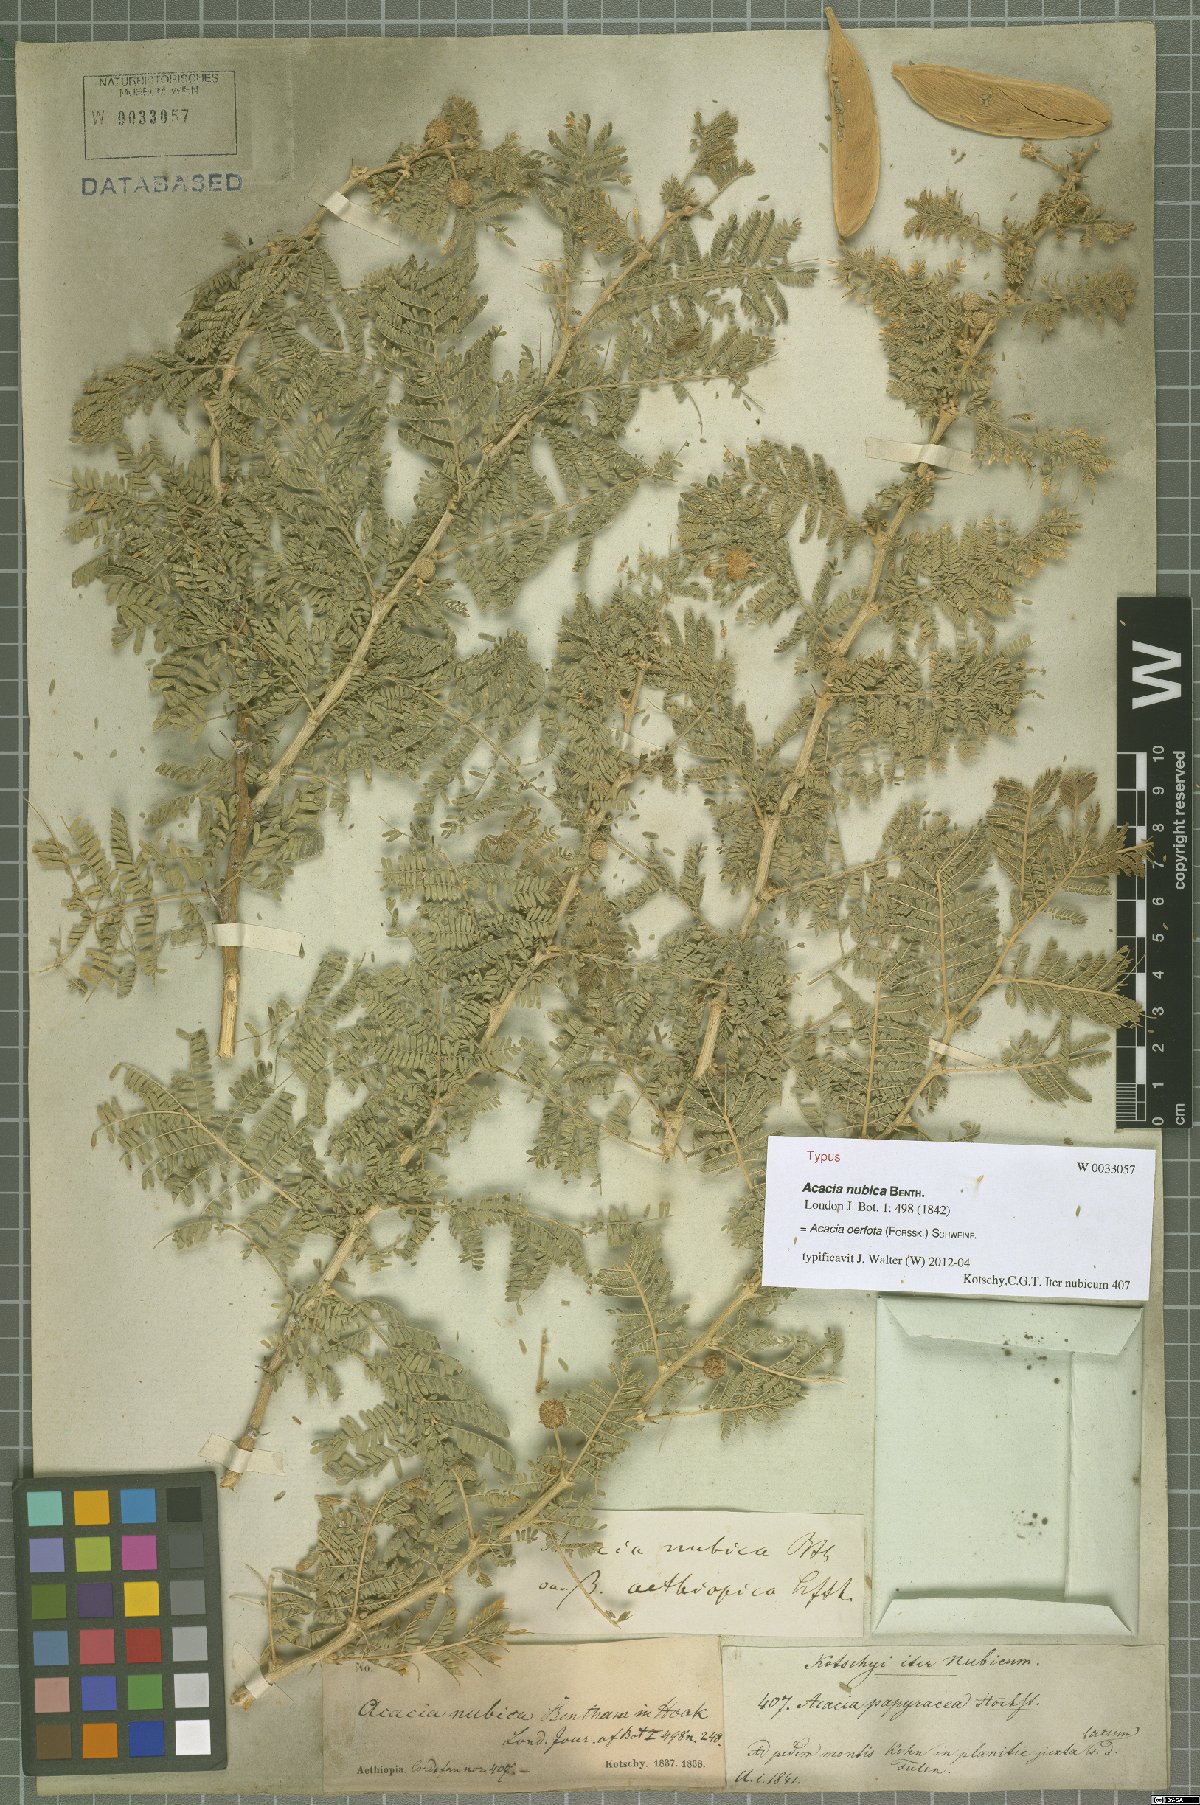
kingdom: Plantae
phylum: Tracheophyta
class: Magnoliopsida
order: Fabales
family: Fabaceae
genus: Vachellia
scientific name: Vachellia oerfota
